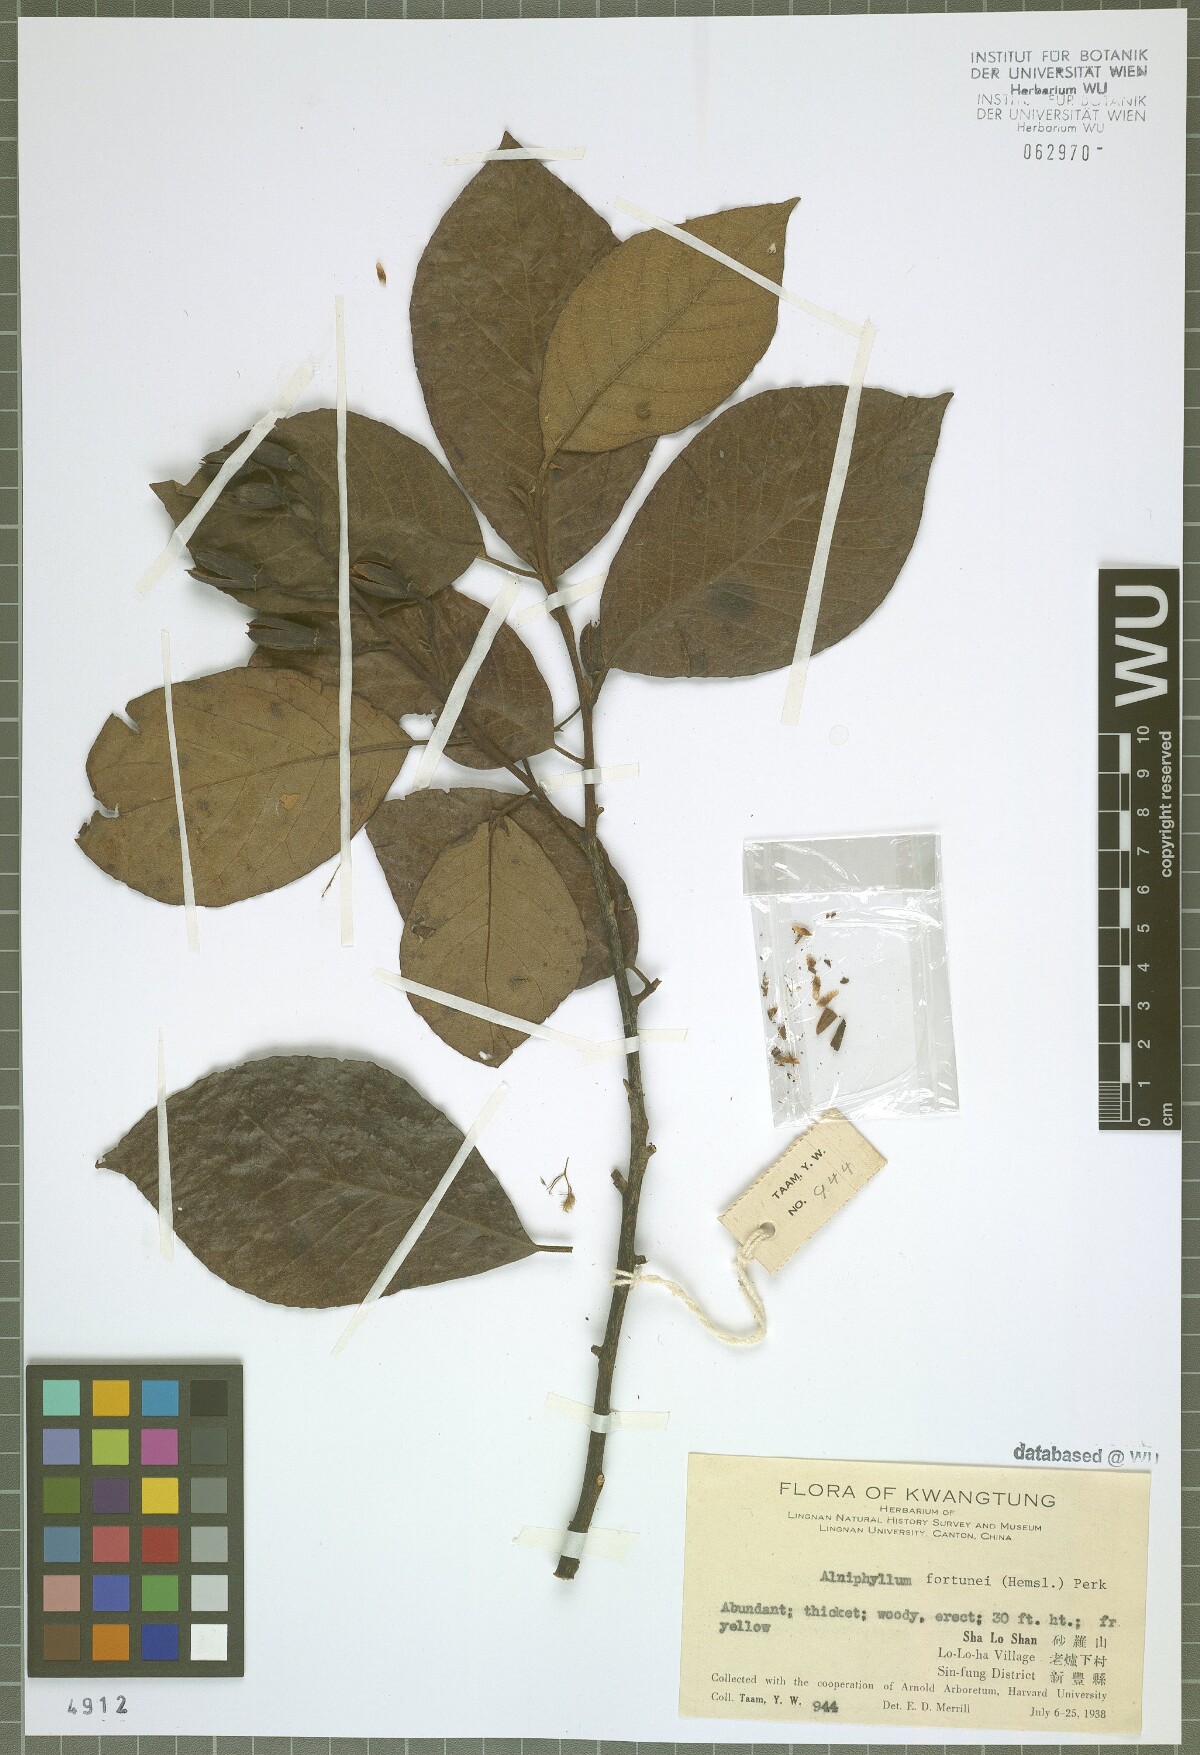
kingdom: Plantae
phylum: Tracheophyta
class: Magnoliopsida
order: Ericales
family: Styracaceae
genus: Alniphyllum
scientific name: Alniphyllum fortunei
